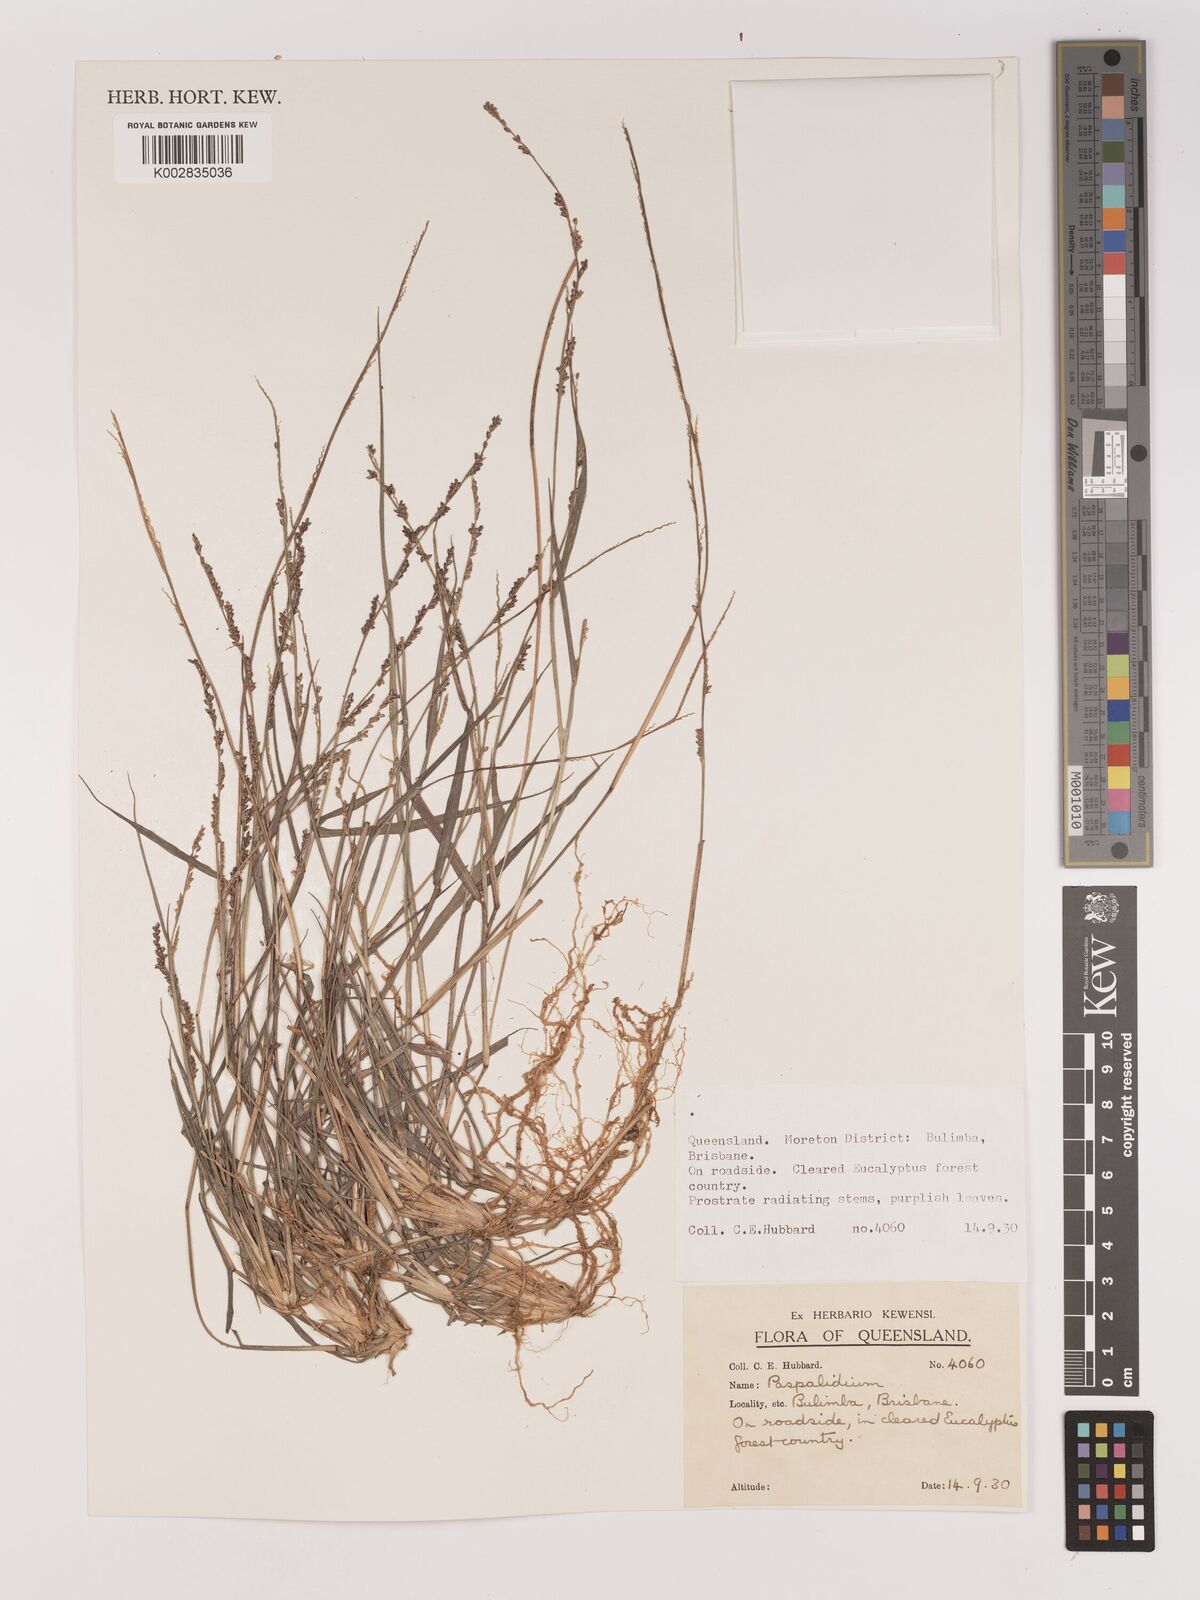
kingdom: Plantae
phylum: Tracheophyta
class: Liliopsida
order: Poales
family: Poaceae
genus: Setaria
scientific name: Setaria
